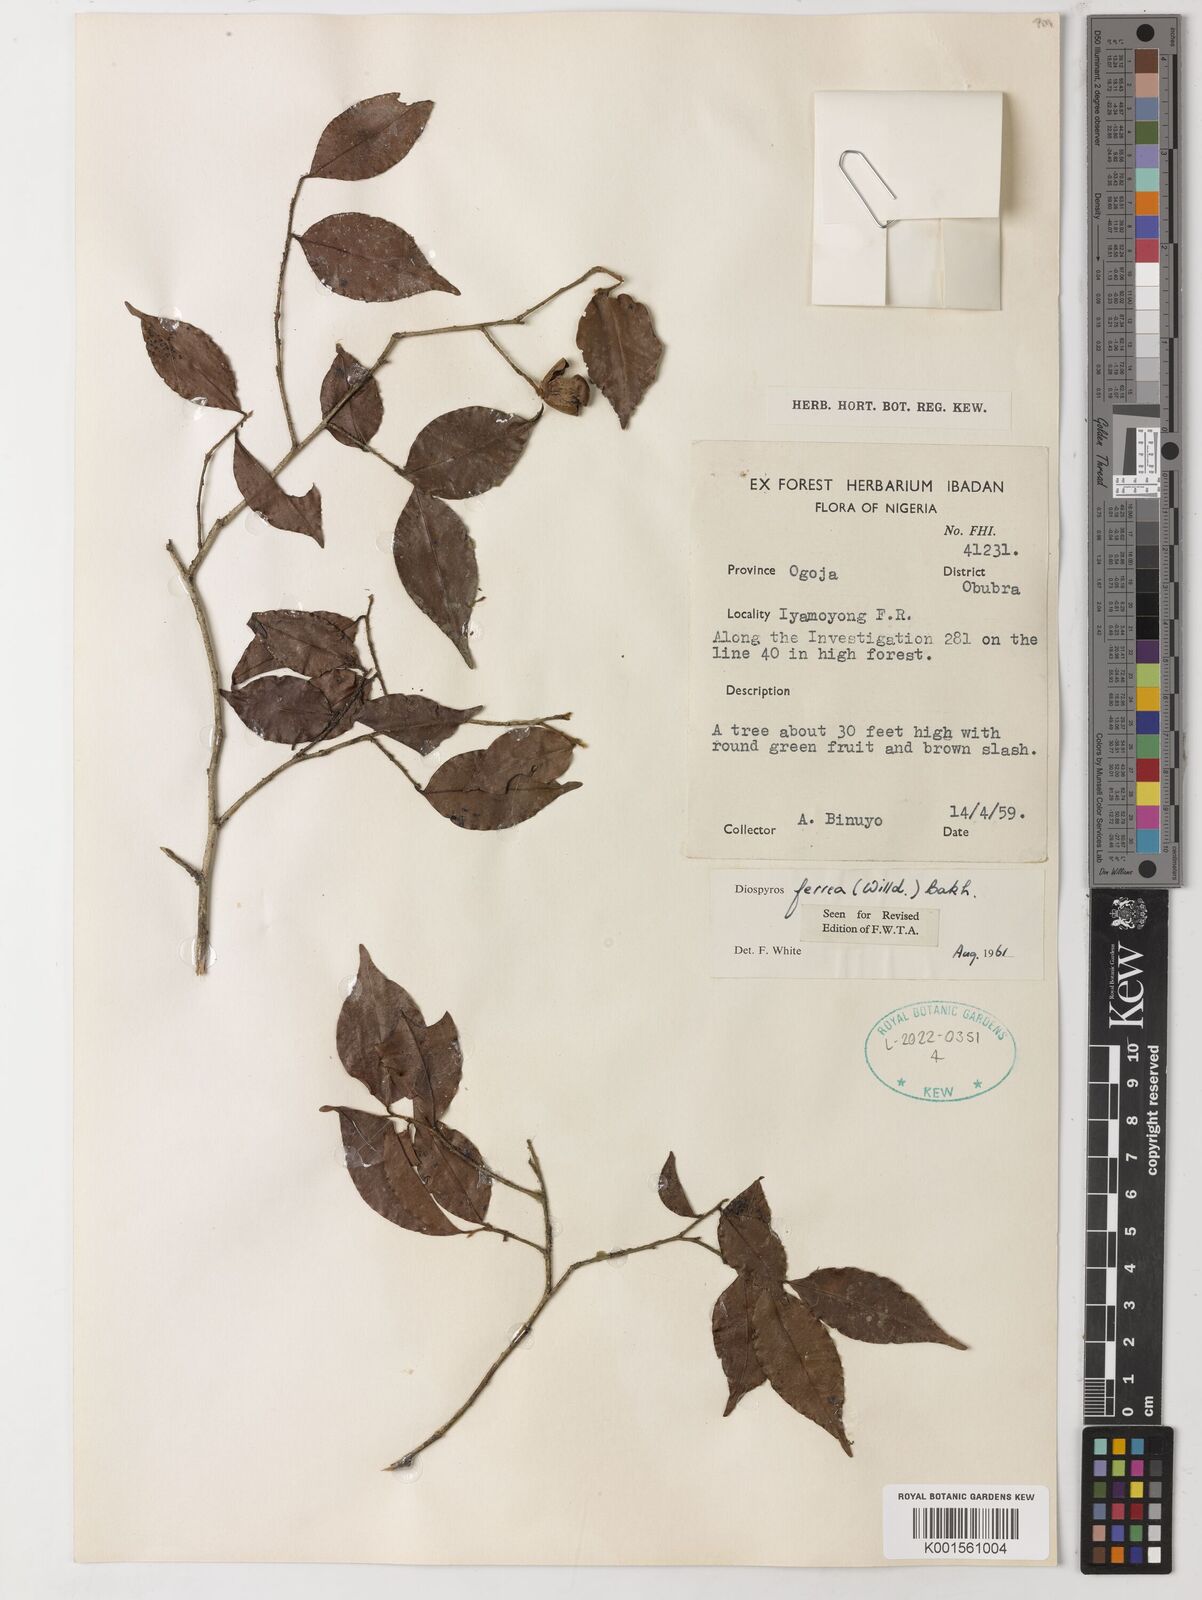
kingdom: Plantae
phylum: Tracheophyta
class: Magnoliopsida
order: Ericales
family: Ebenaceae
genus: Diospyros
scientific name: Diospyros ferrea
